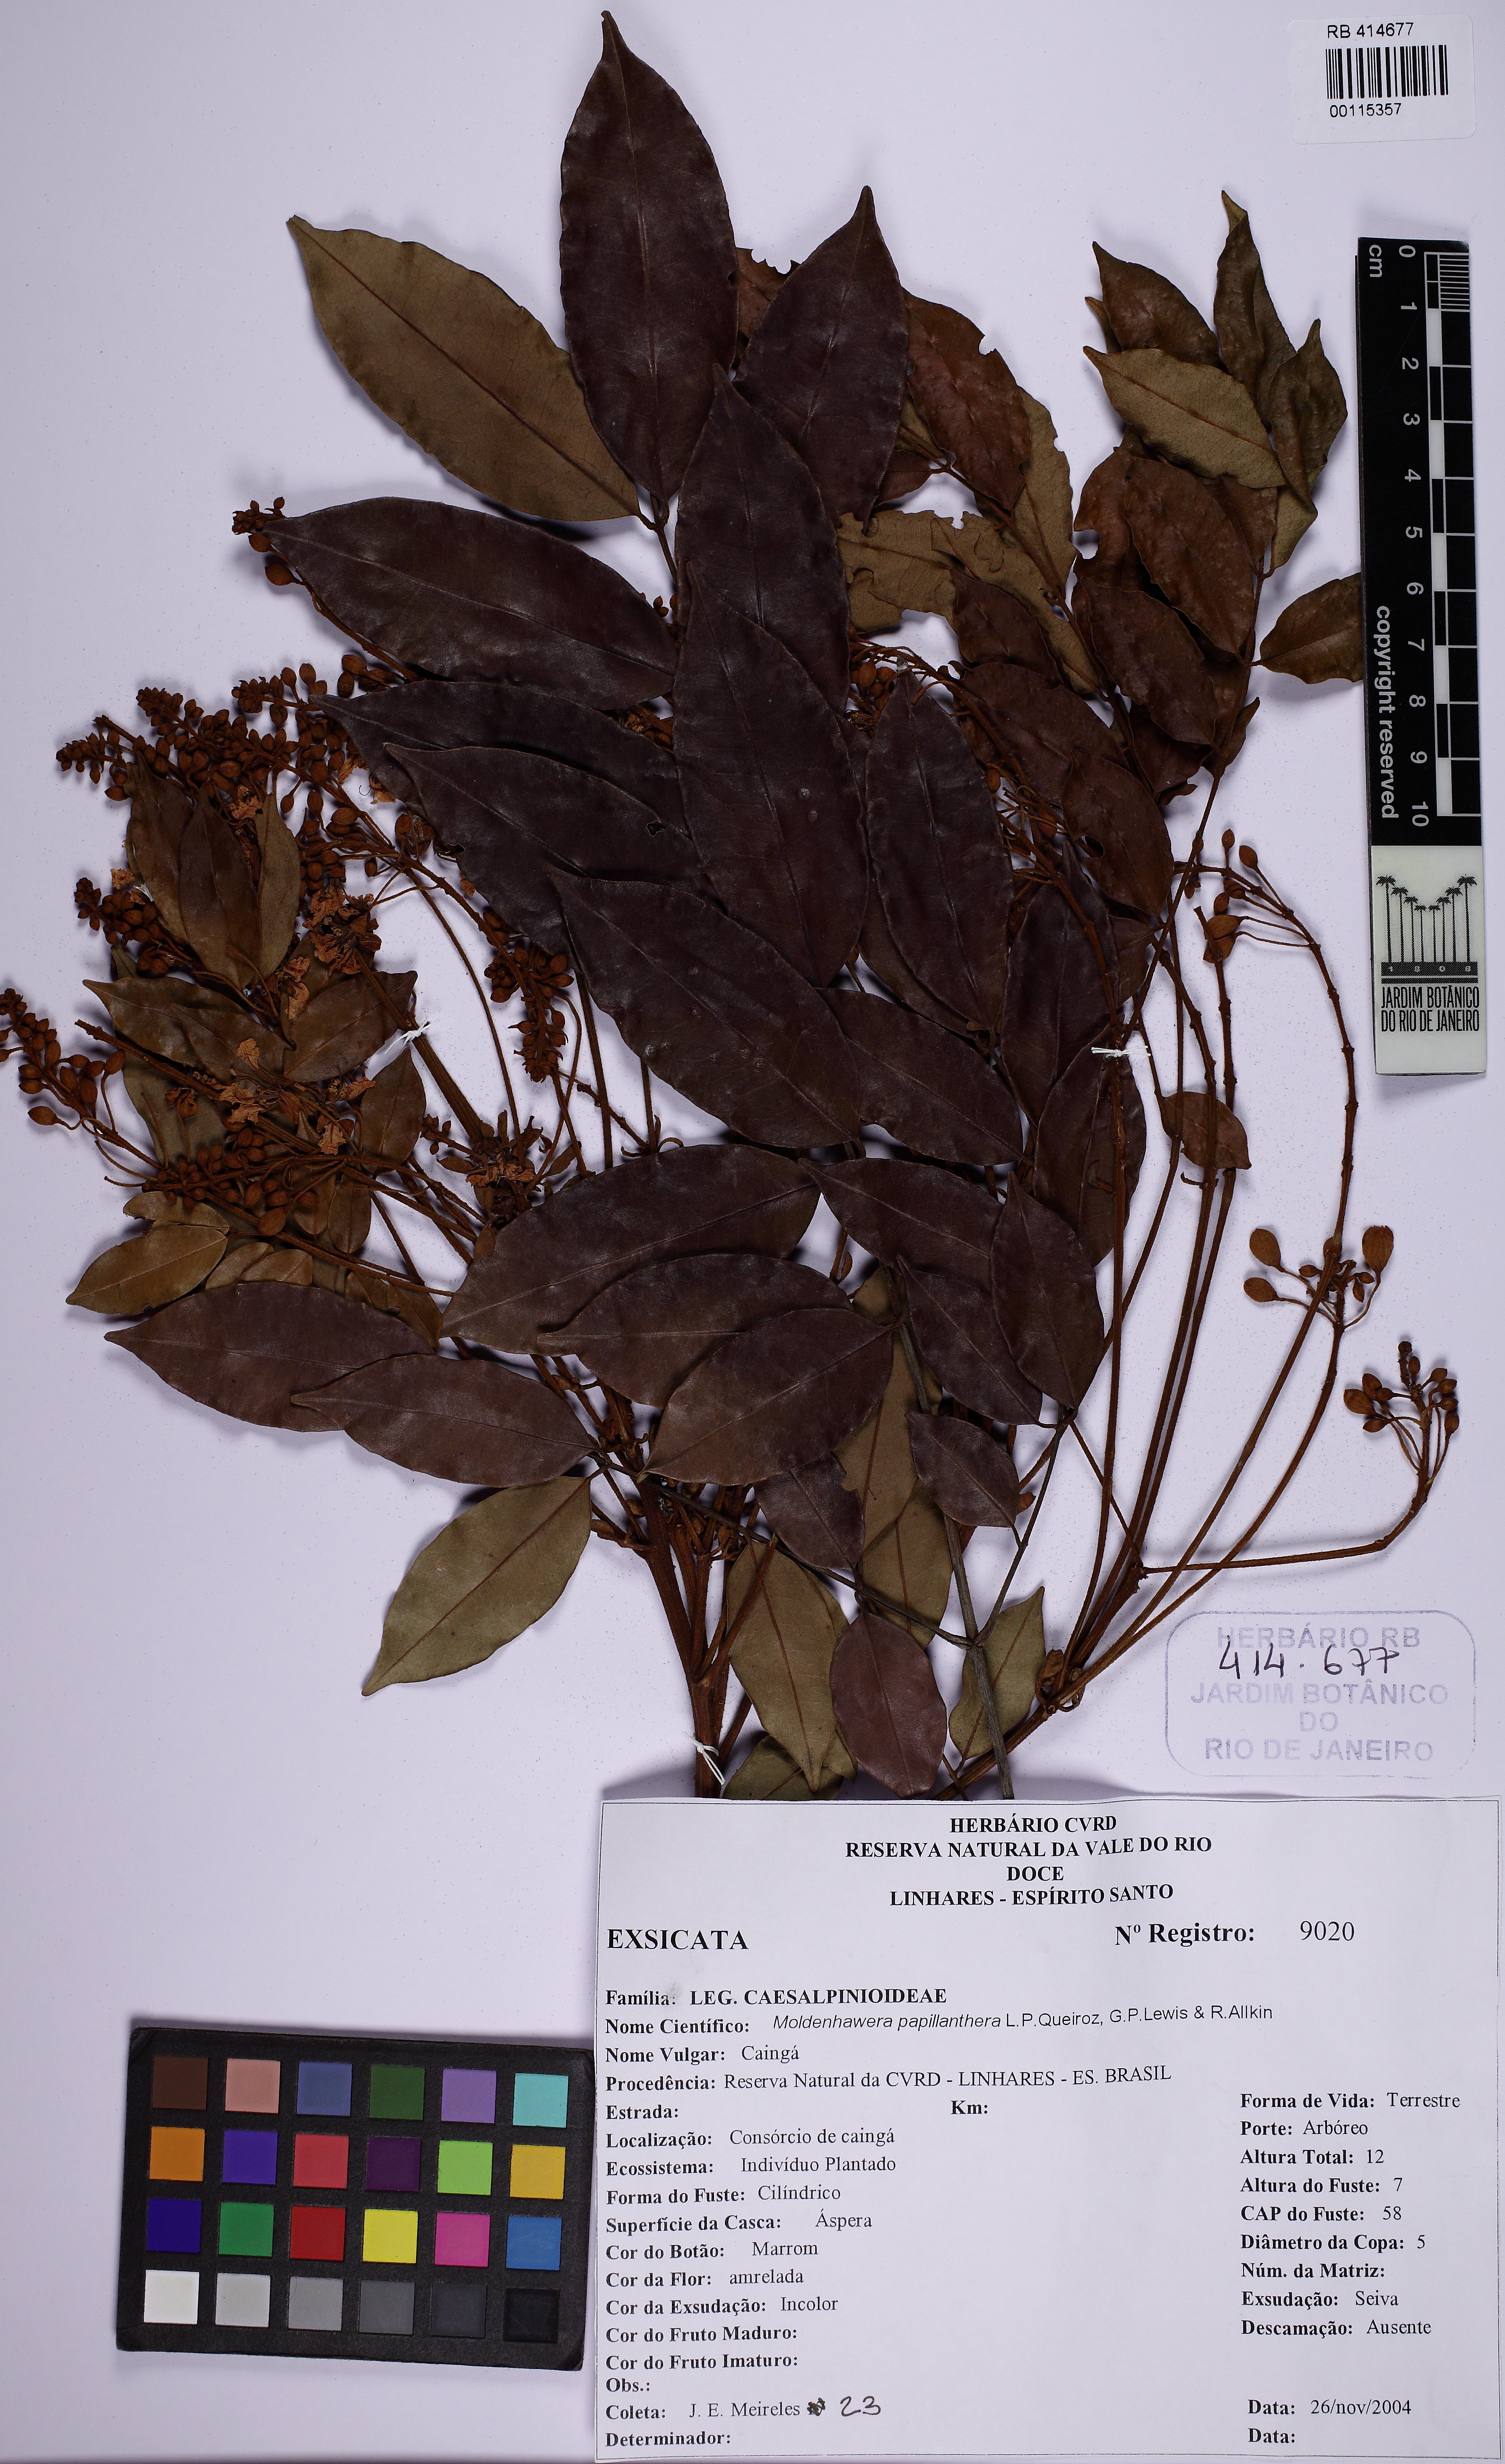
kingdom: Plantae
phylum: Tracheophyta
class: Magnoliopsida
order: Fabales
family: Fabaceae
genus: Moldenhawera
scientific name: Moldenhawera papillanthera
